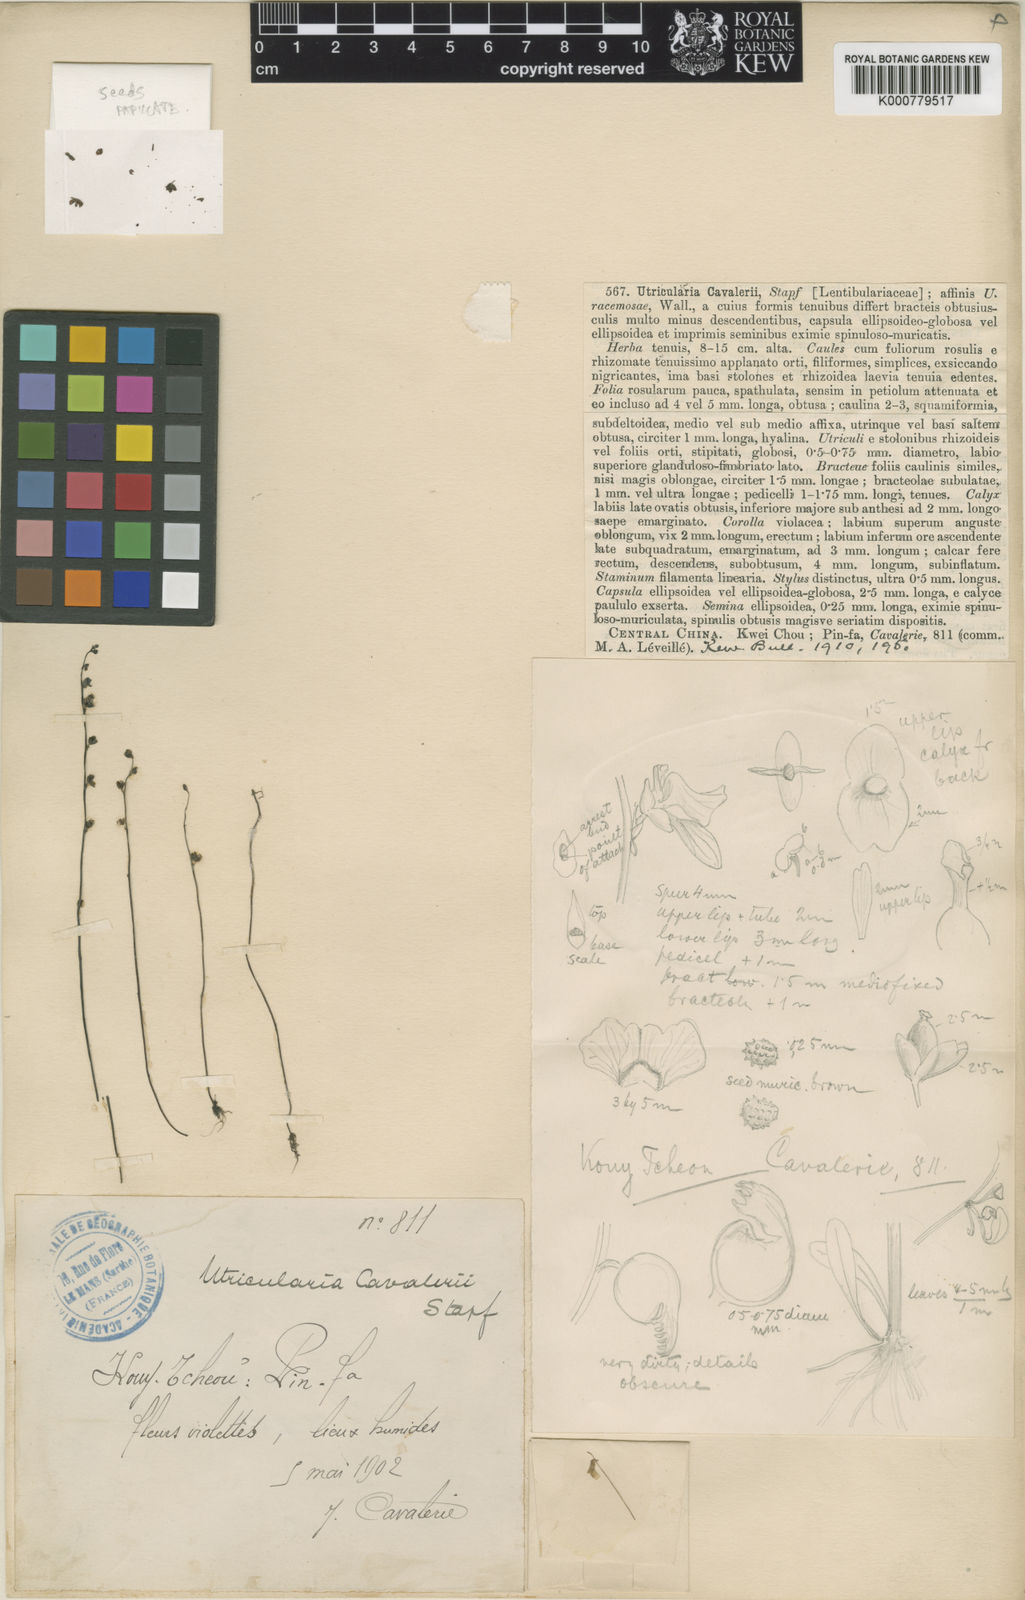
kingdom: Plantae
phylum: Tracheophyta
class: Magnoliopsida
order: Lamiales
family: Lentibulariaceae
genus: Utricularia
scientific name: Utricularia caerulea
